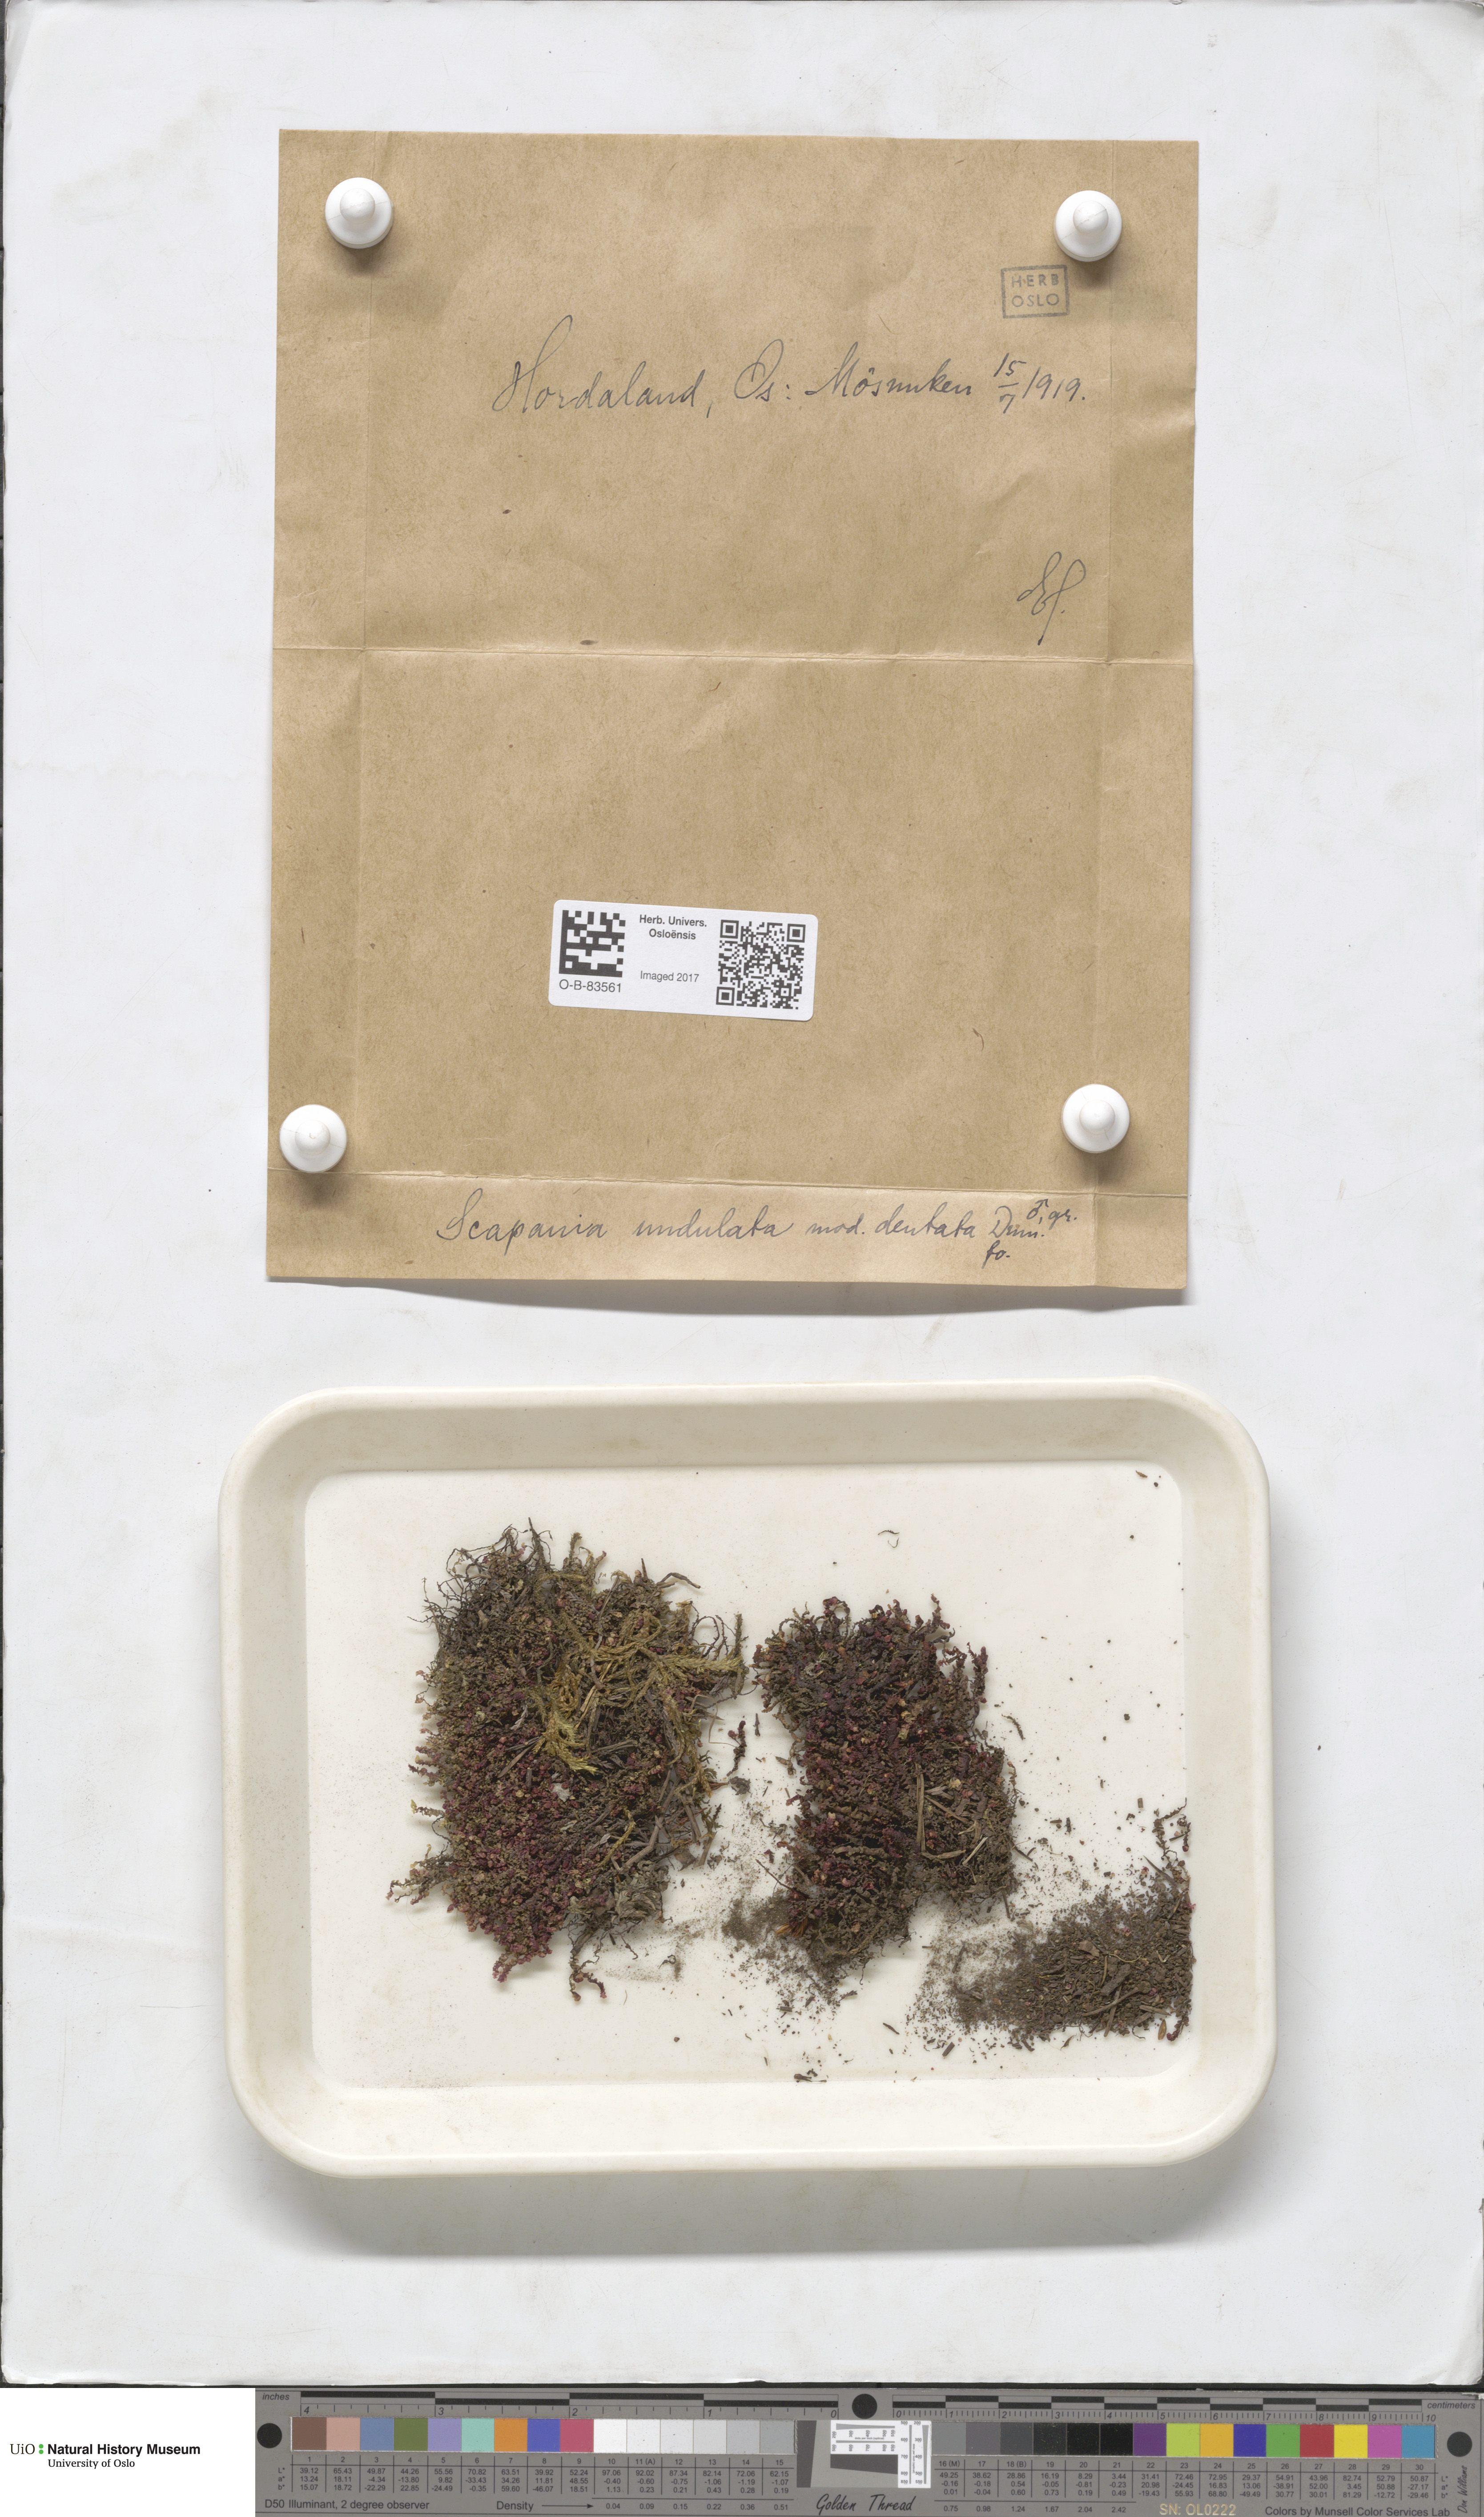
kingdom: Plantae
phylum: Marchantiophyta
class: Jungermanniopsida
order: Jungermanniales
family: Scapaniaceae
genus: Scapania
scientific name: Scapania undulata
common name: Water earwort
